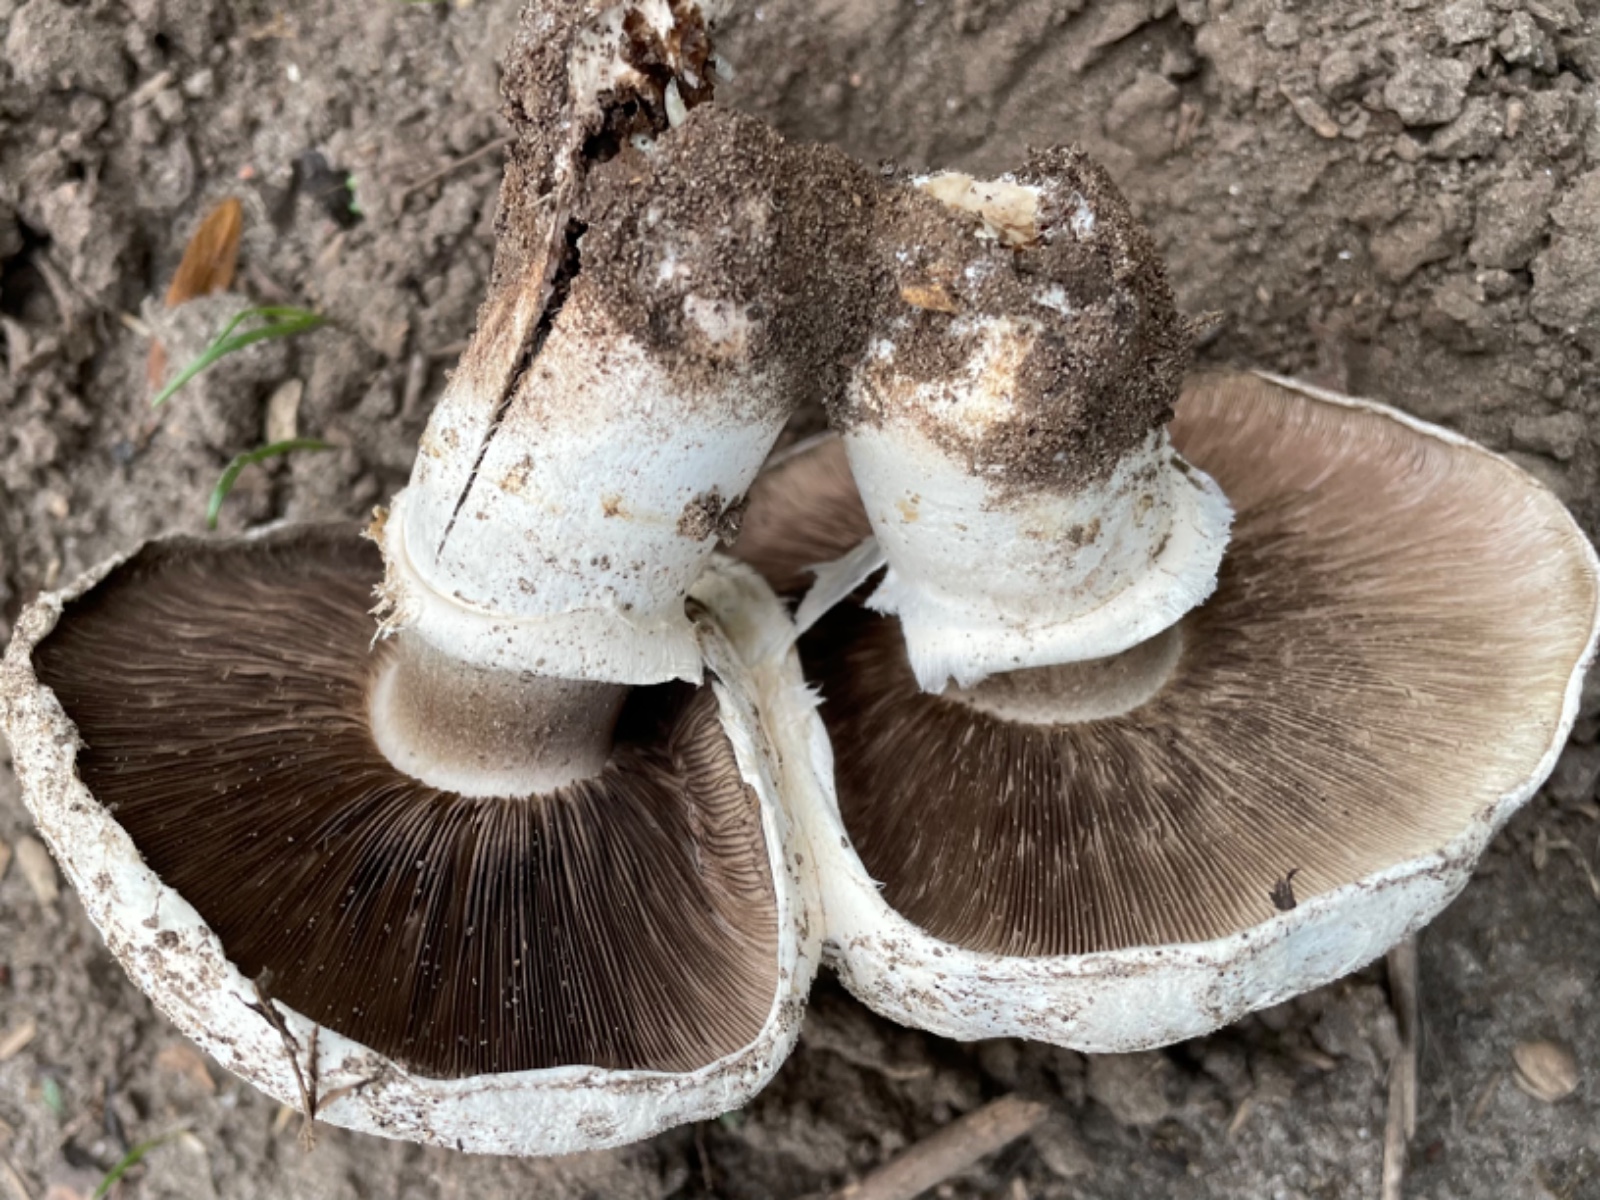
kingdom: Fungi
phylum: Basidiomycota
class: Agaricomycetes
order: Agaricales
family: Agaricaceae
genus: Agaricus
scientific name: Agaricus bitorquis
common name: vej-champignon
